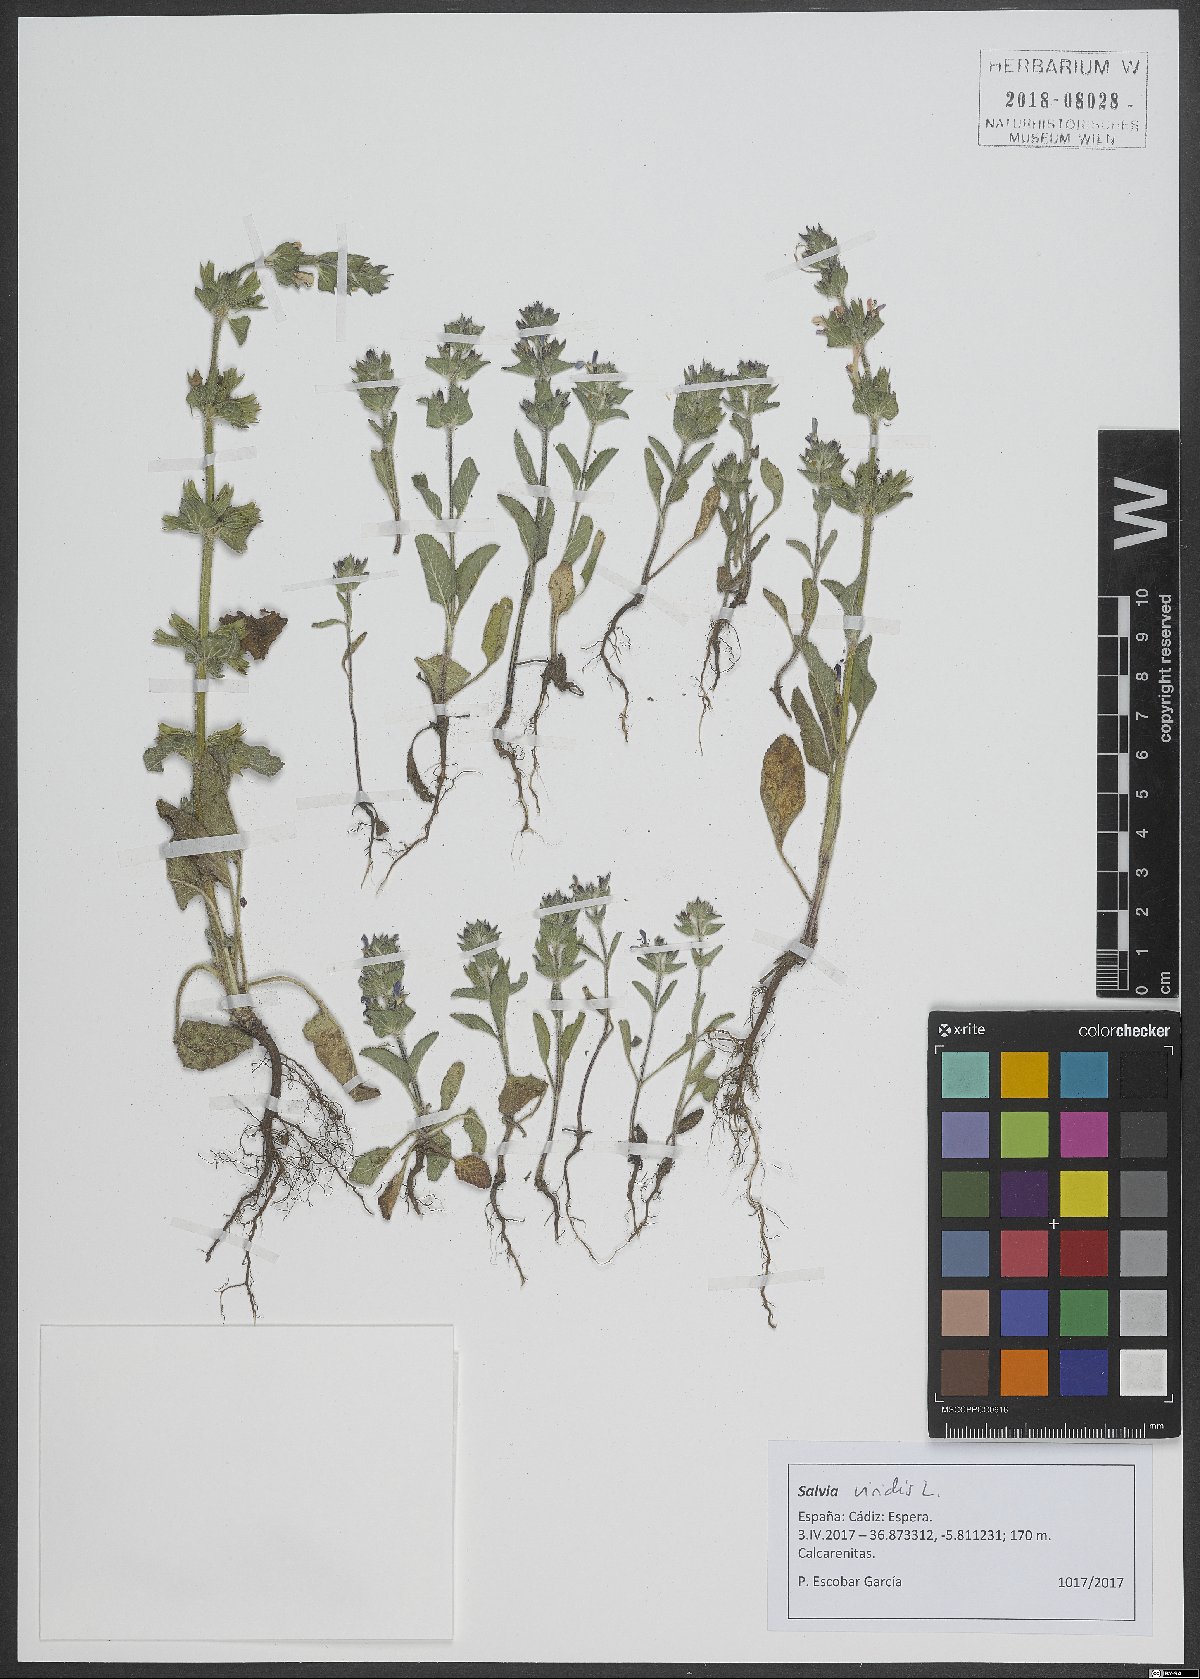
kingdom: Plantae
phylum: Tracheophyta
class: Magnoliopsida
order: Lamiales
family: Lamiaceae
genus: Salvia
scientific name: Salvia viridis
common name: Annual clary
